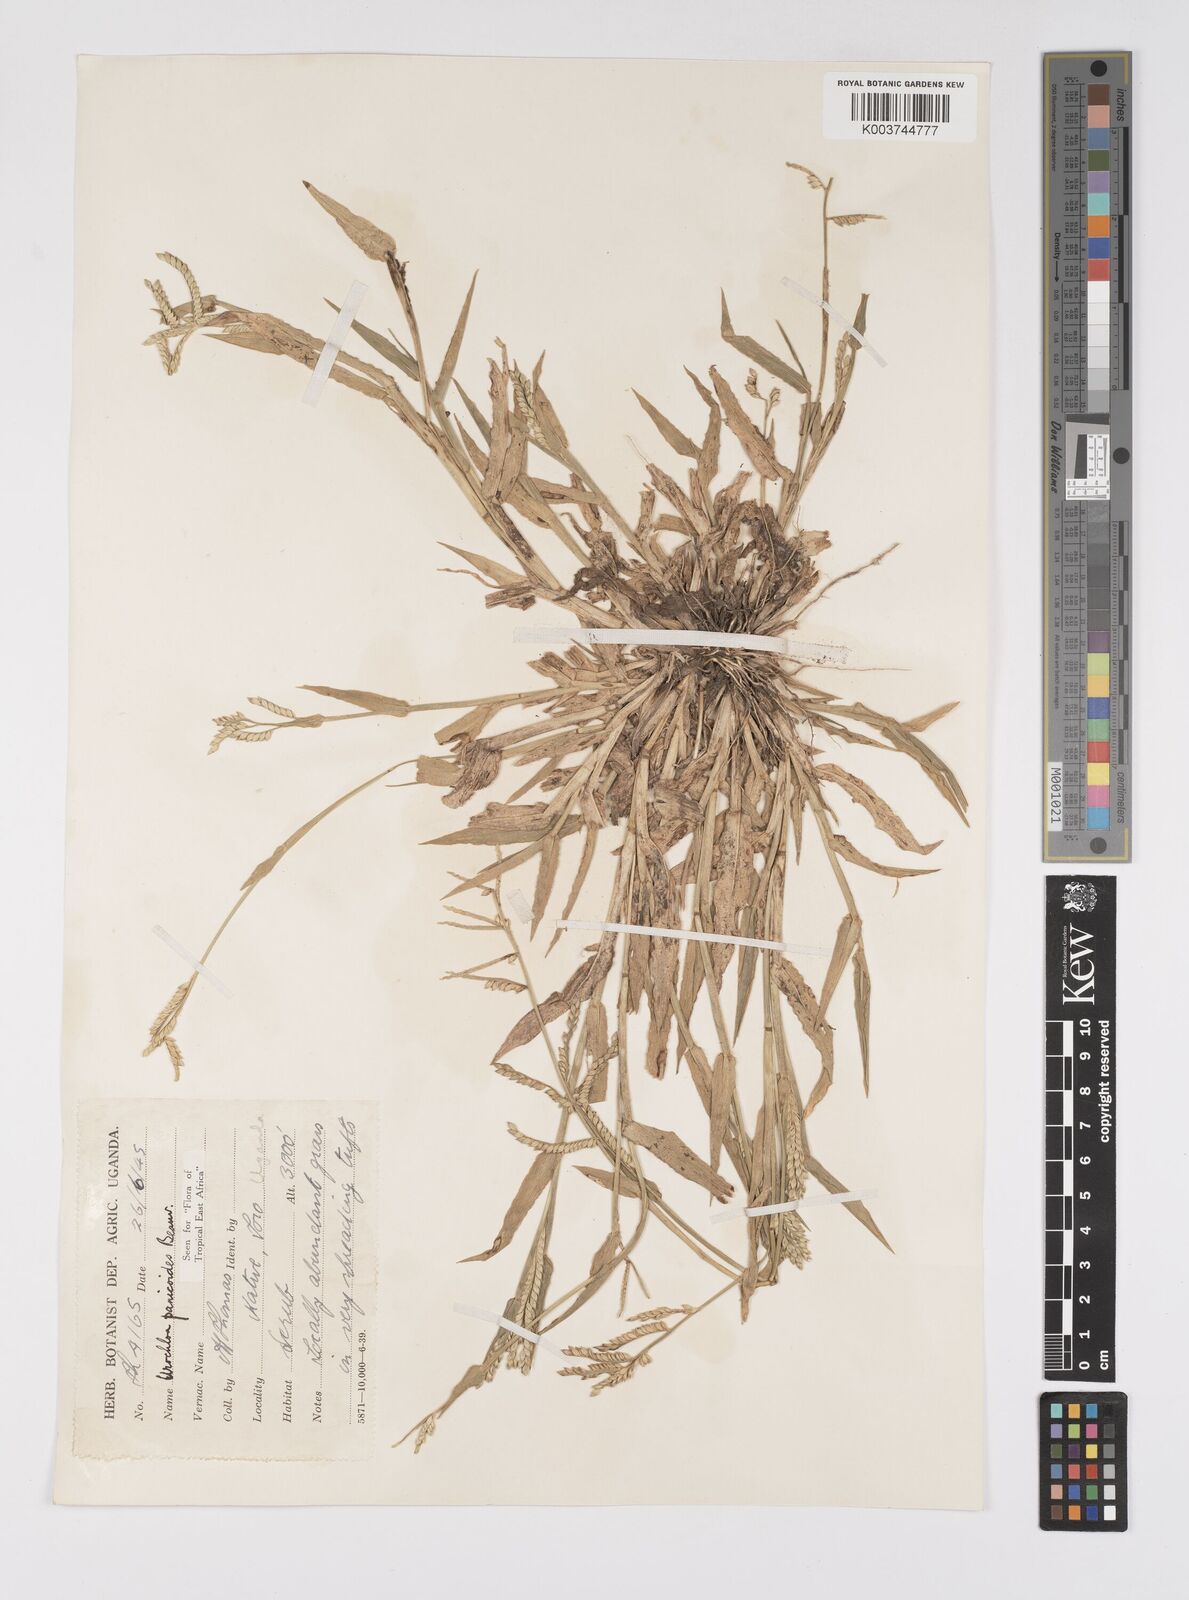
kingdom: Plantae
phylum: Tracheophyta
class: Liliopsida
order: Poales
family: Poaceae
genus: Urochloa
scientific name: Urochloa panicoides
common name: Sharp-flowered signal-grass
